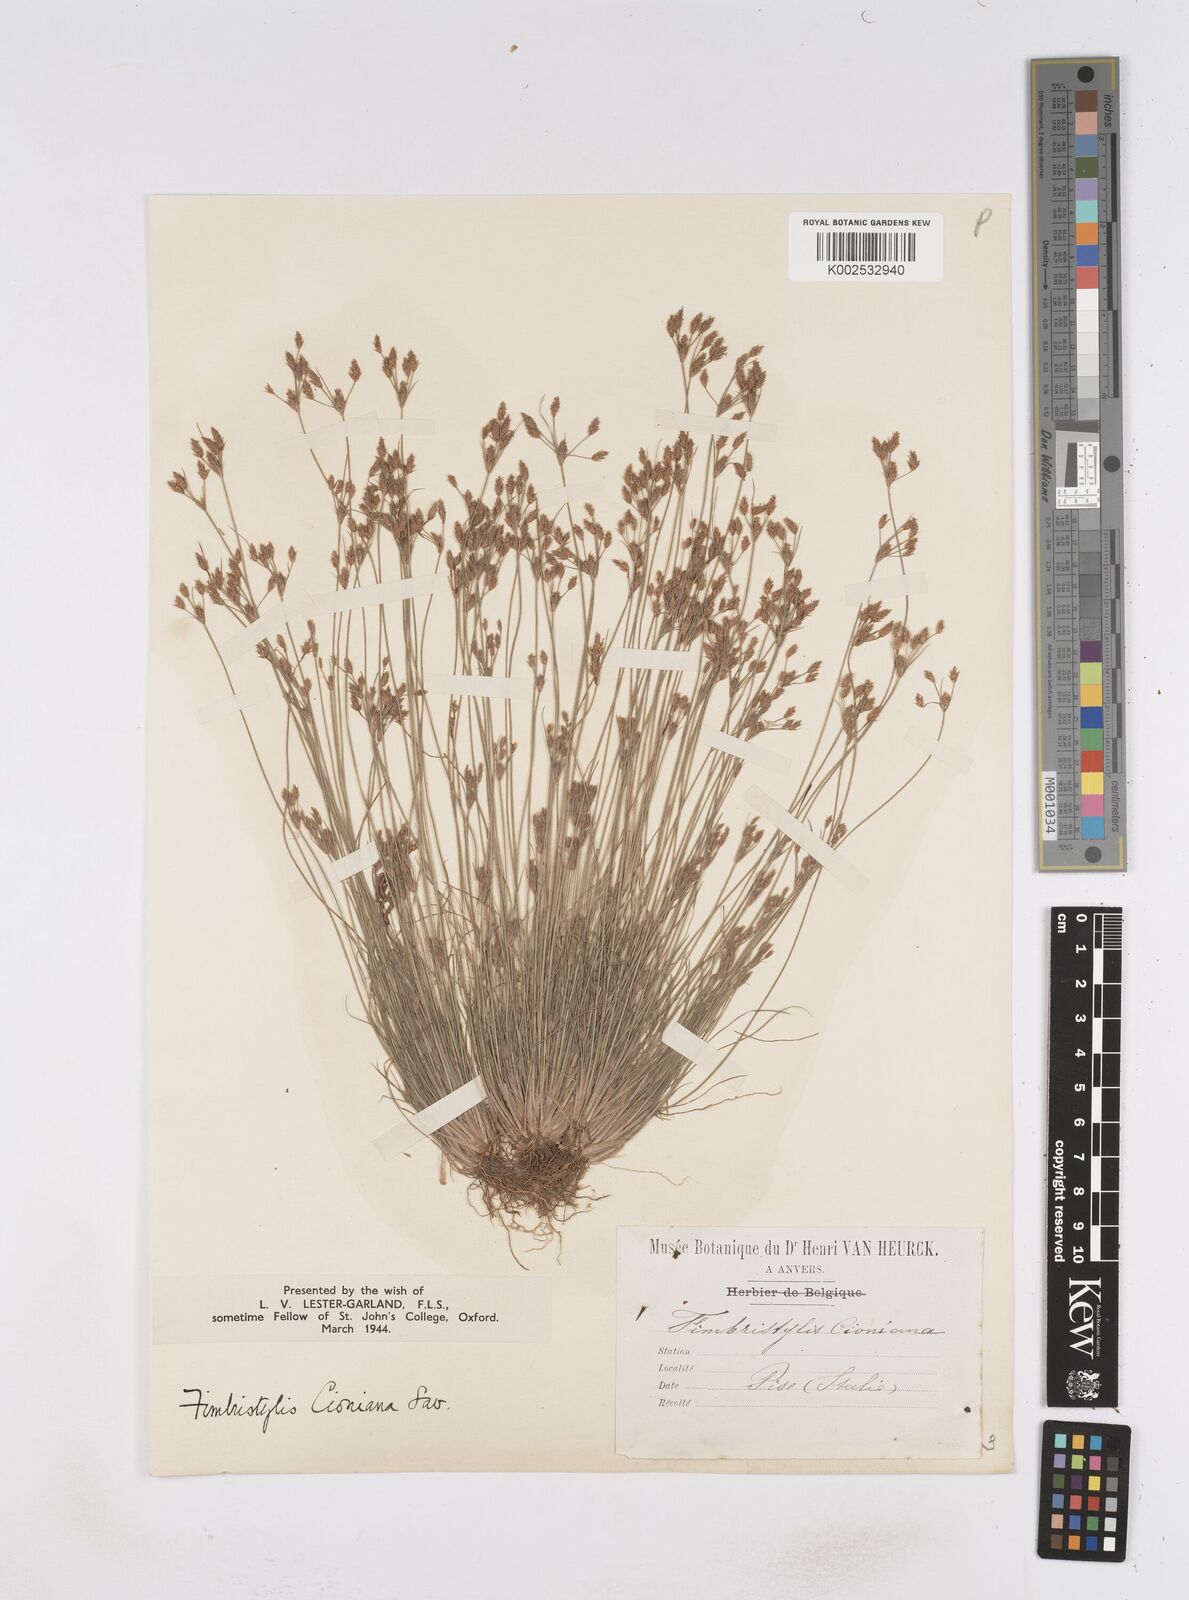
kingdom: Plantae
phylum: Tracheophyta
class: Liliopsida
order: Poales
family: Cyperaceae
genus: Bulbostylis
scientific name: Bulbostylis cioniana
